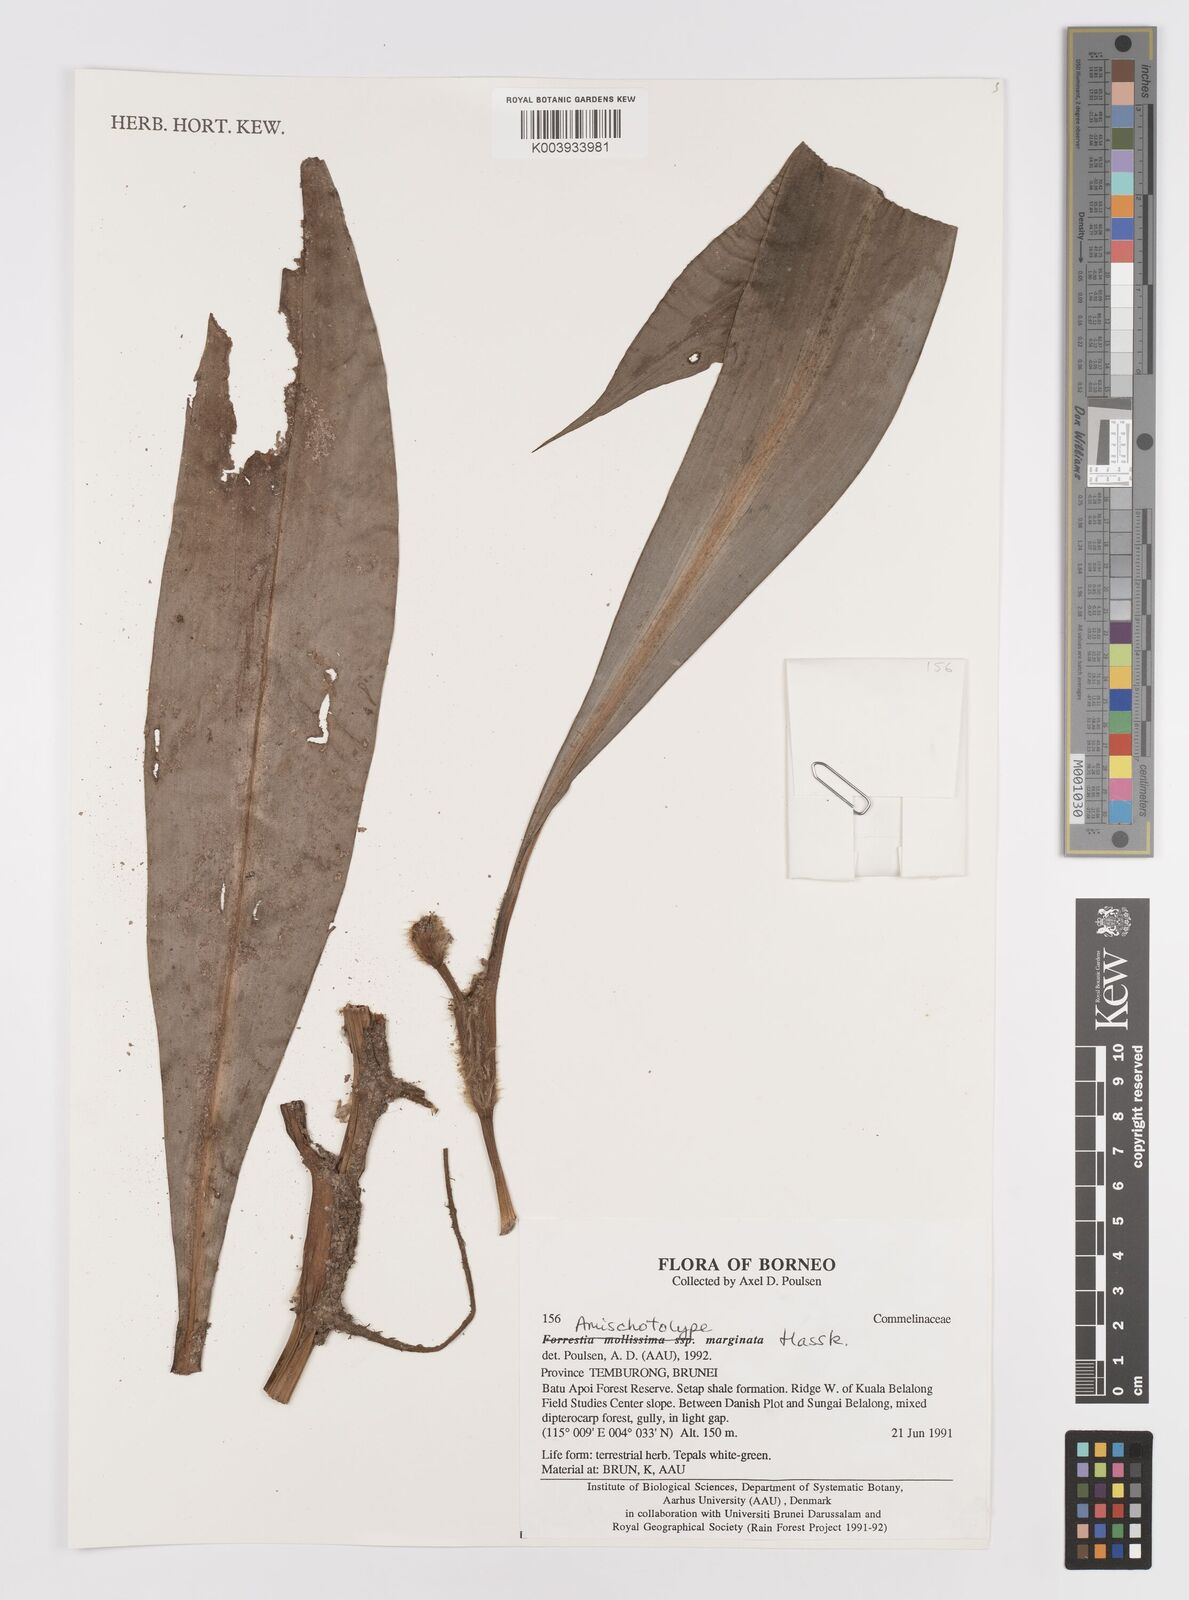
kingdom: Plantae
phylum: Tracheophyta
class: Liliopsida
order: Commelinales
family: Commelinaceae
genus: Amischotolype
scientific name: Amischotolype marginata
